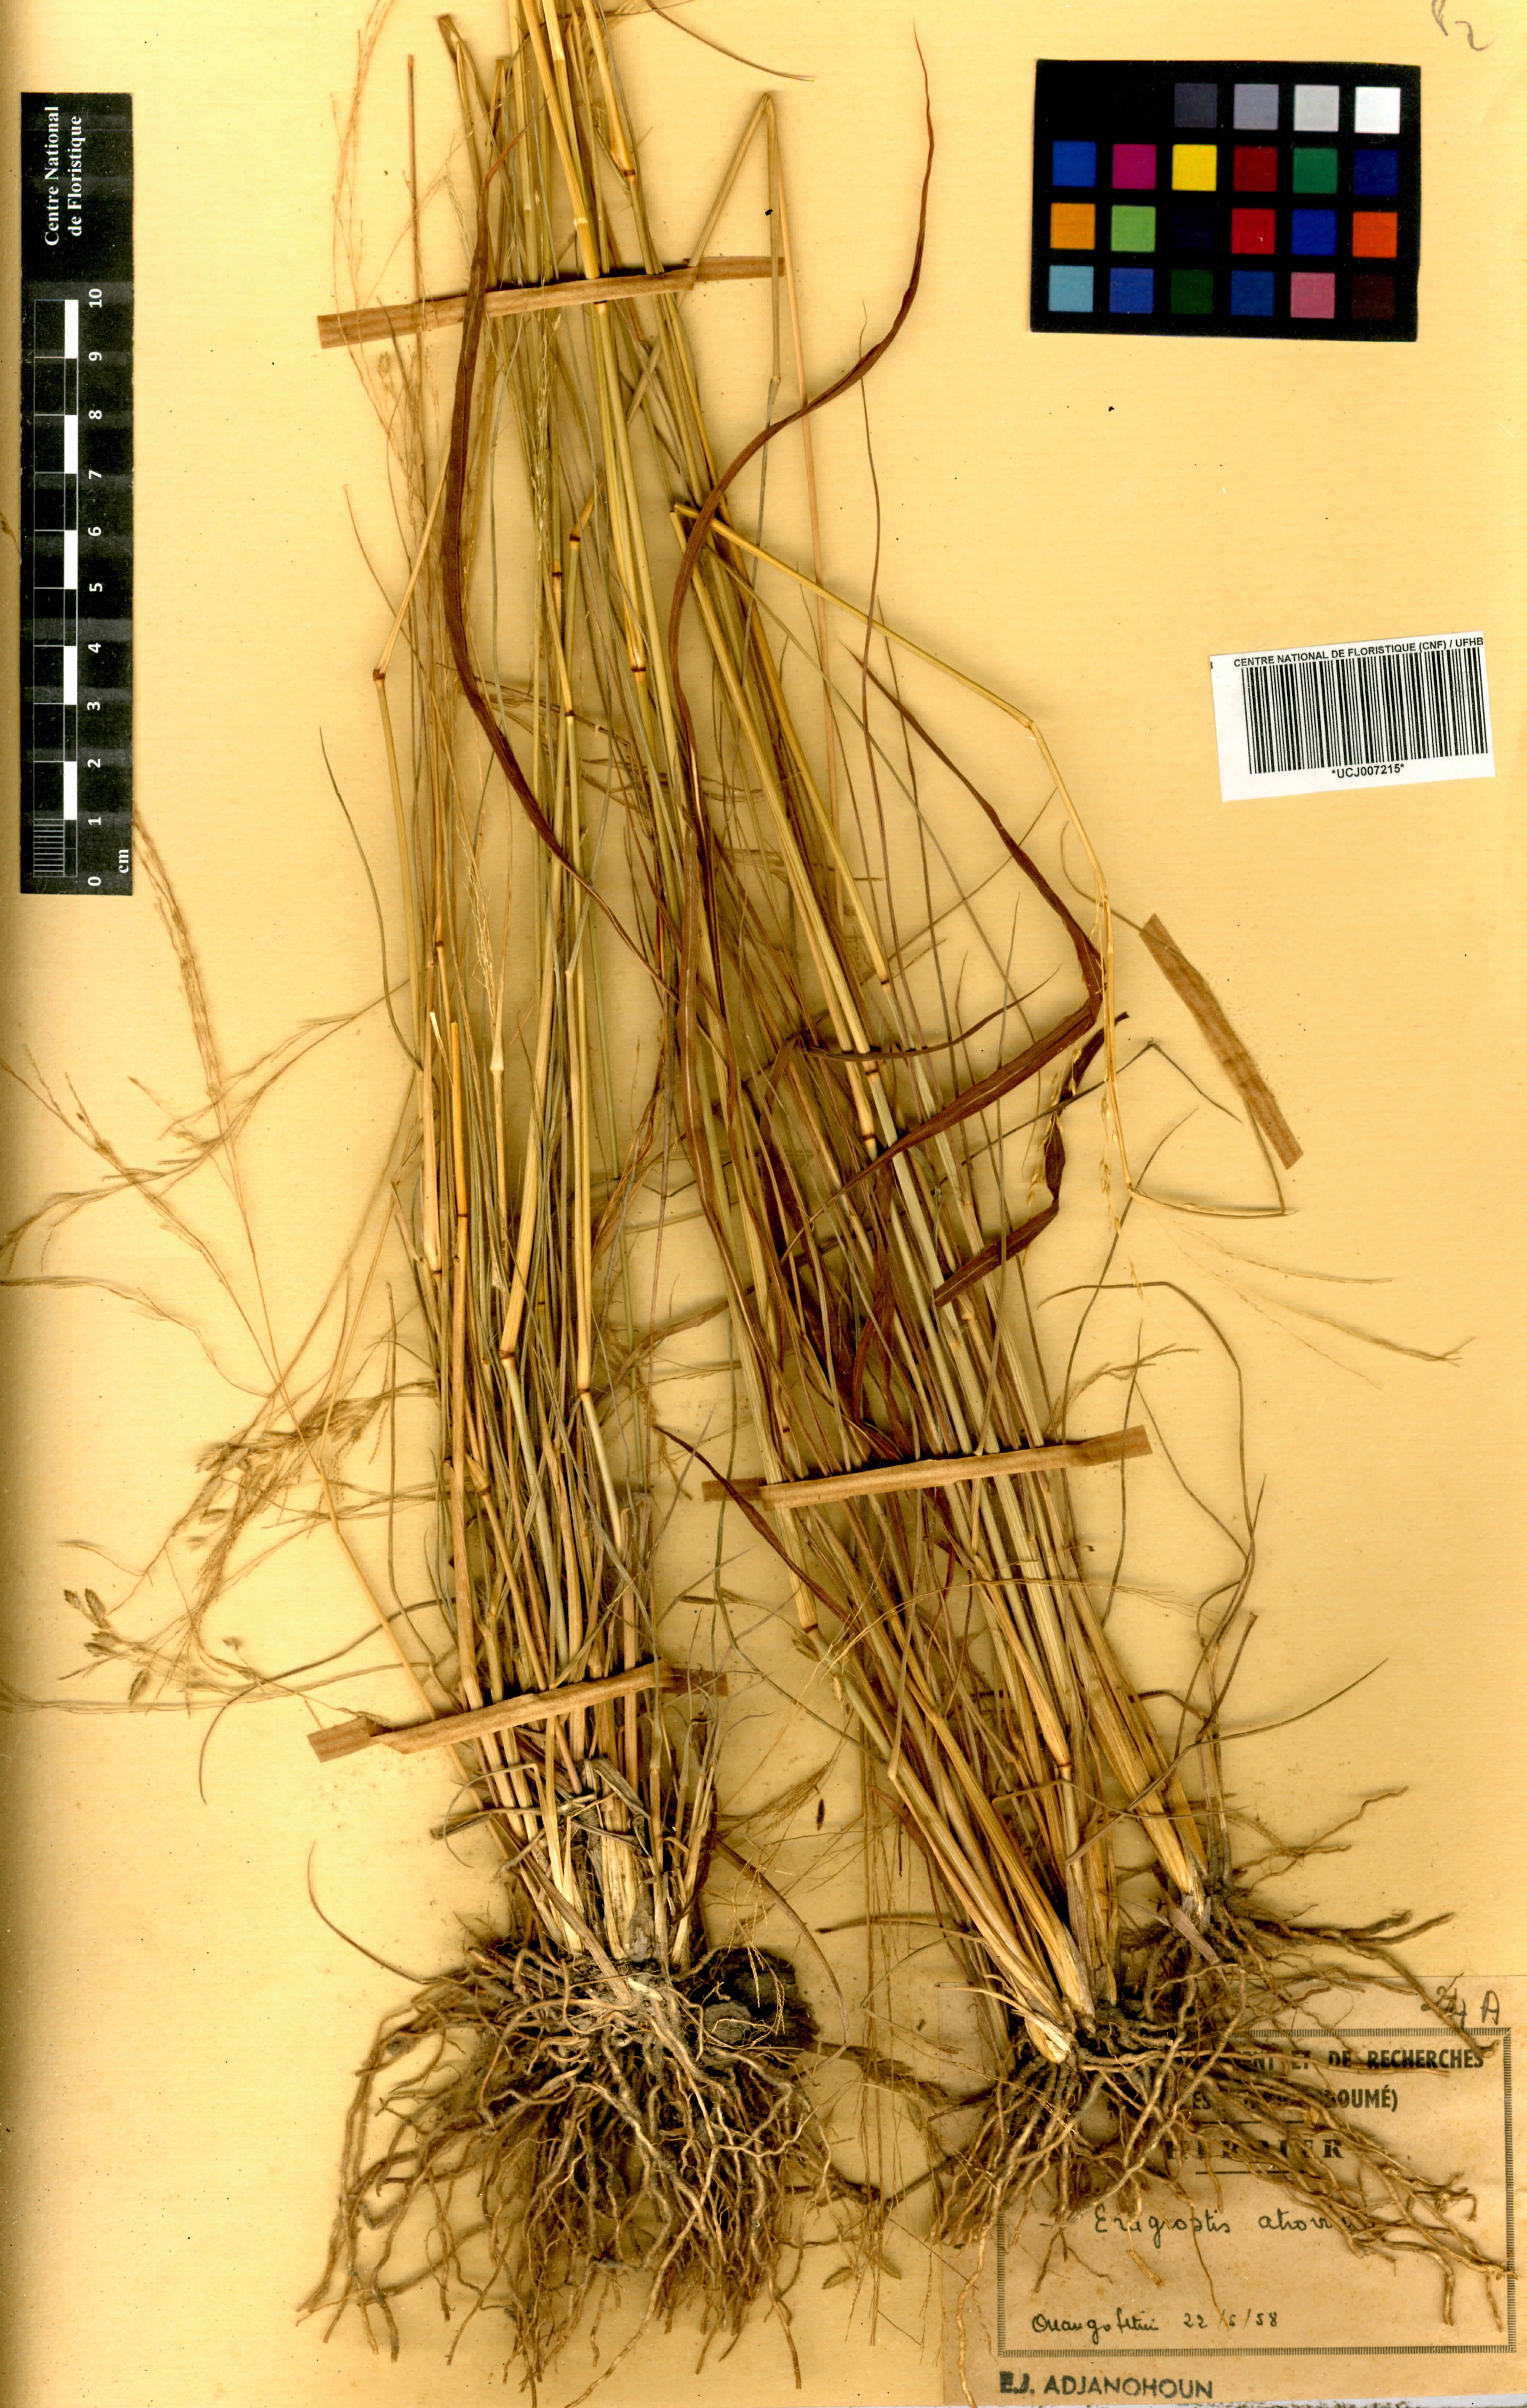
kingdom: Plantae
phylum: Tracheophyta
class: Liliopsida
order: Poales
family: Poaceae
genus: Eragrostis
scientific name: Eragrostis atrovirens
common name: Thalia lovegrass
